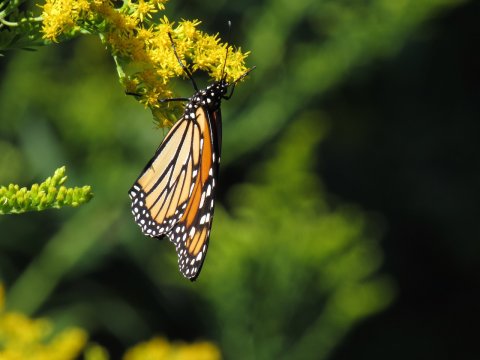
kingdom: Animalia
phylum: Arthropoda
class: Insecta
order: Lepidoptera
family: Nymphalidae
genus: Danaus
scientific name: Danaus plexippus
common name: Monarch
